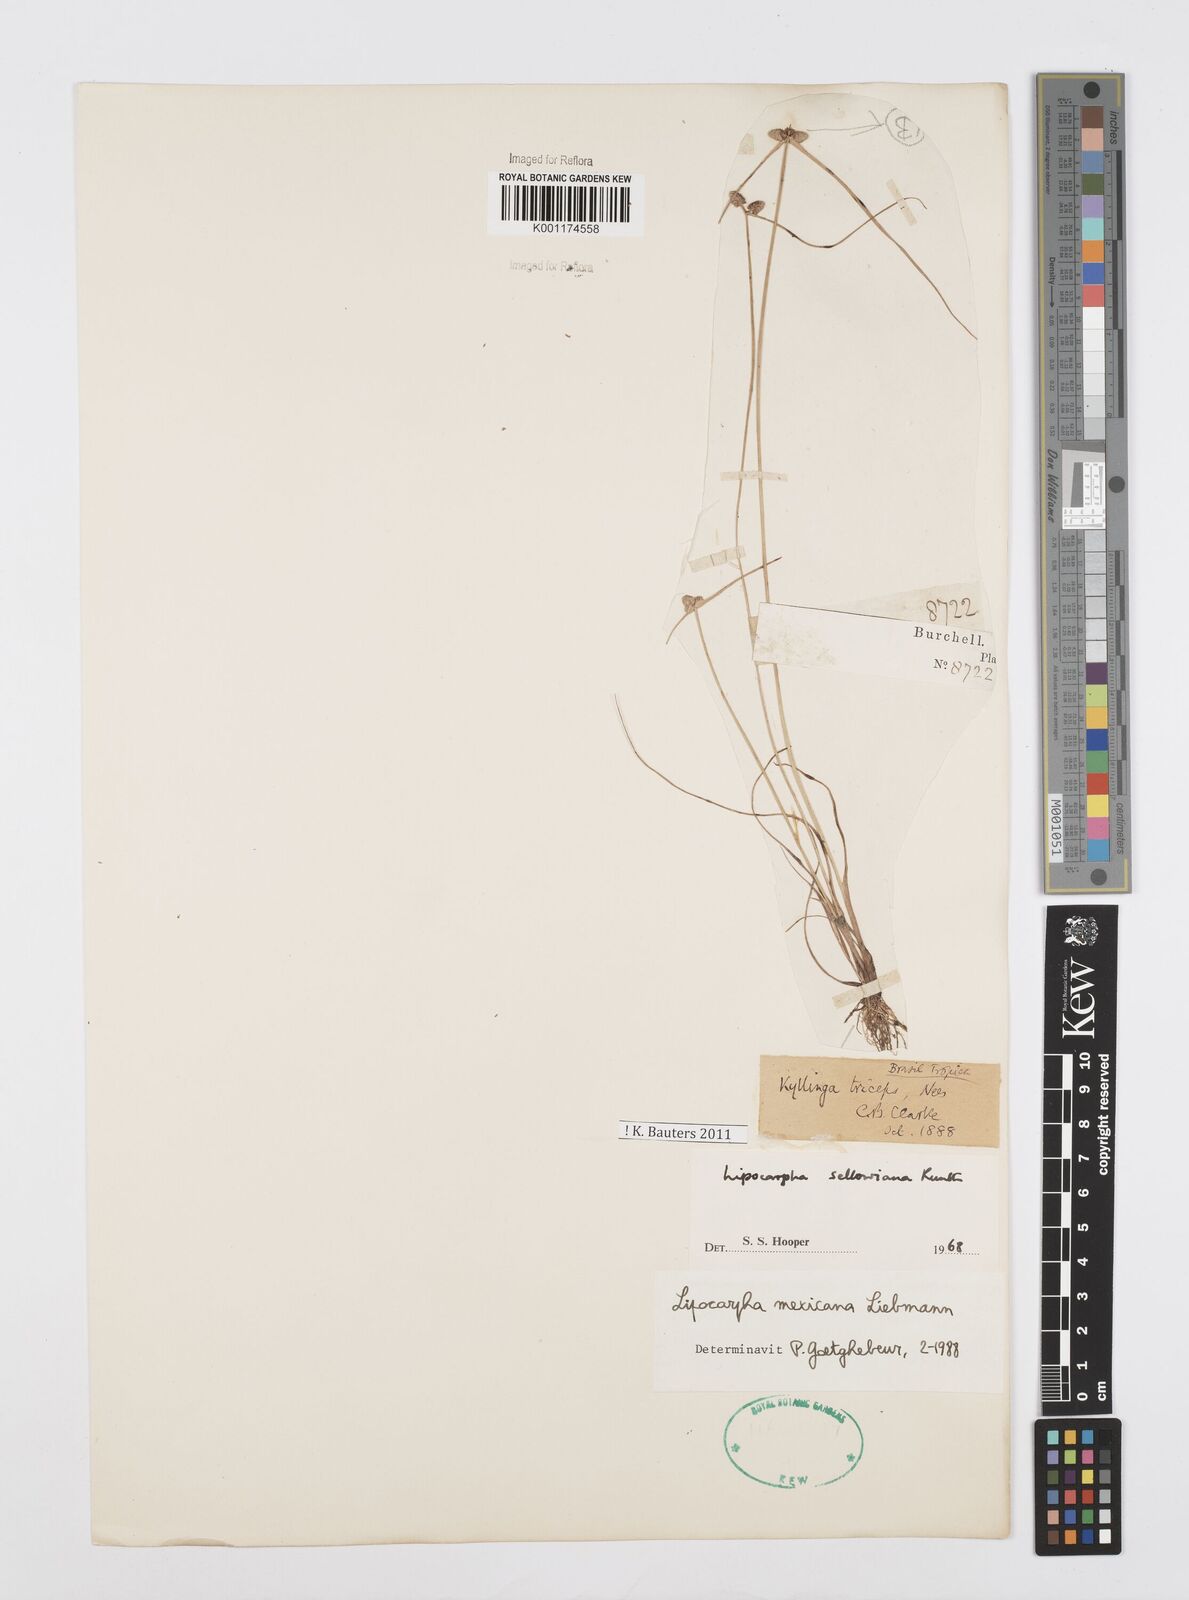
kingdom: Plantae
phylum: Tracheophyta
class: Liliopsida
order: Poales
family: Cyperaceae
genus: Cyperus
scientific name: Cyperus digitatus
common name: Finger flatsedge
